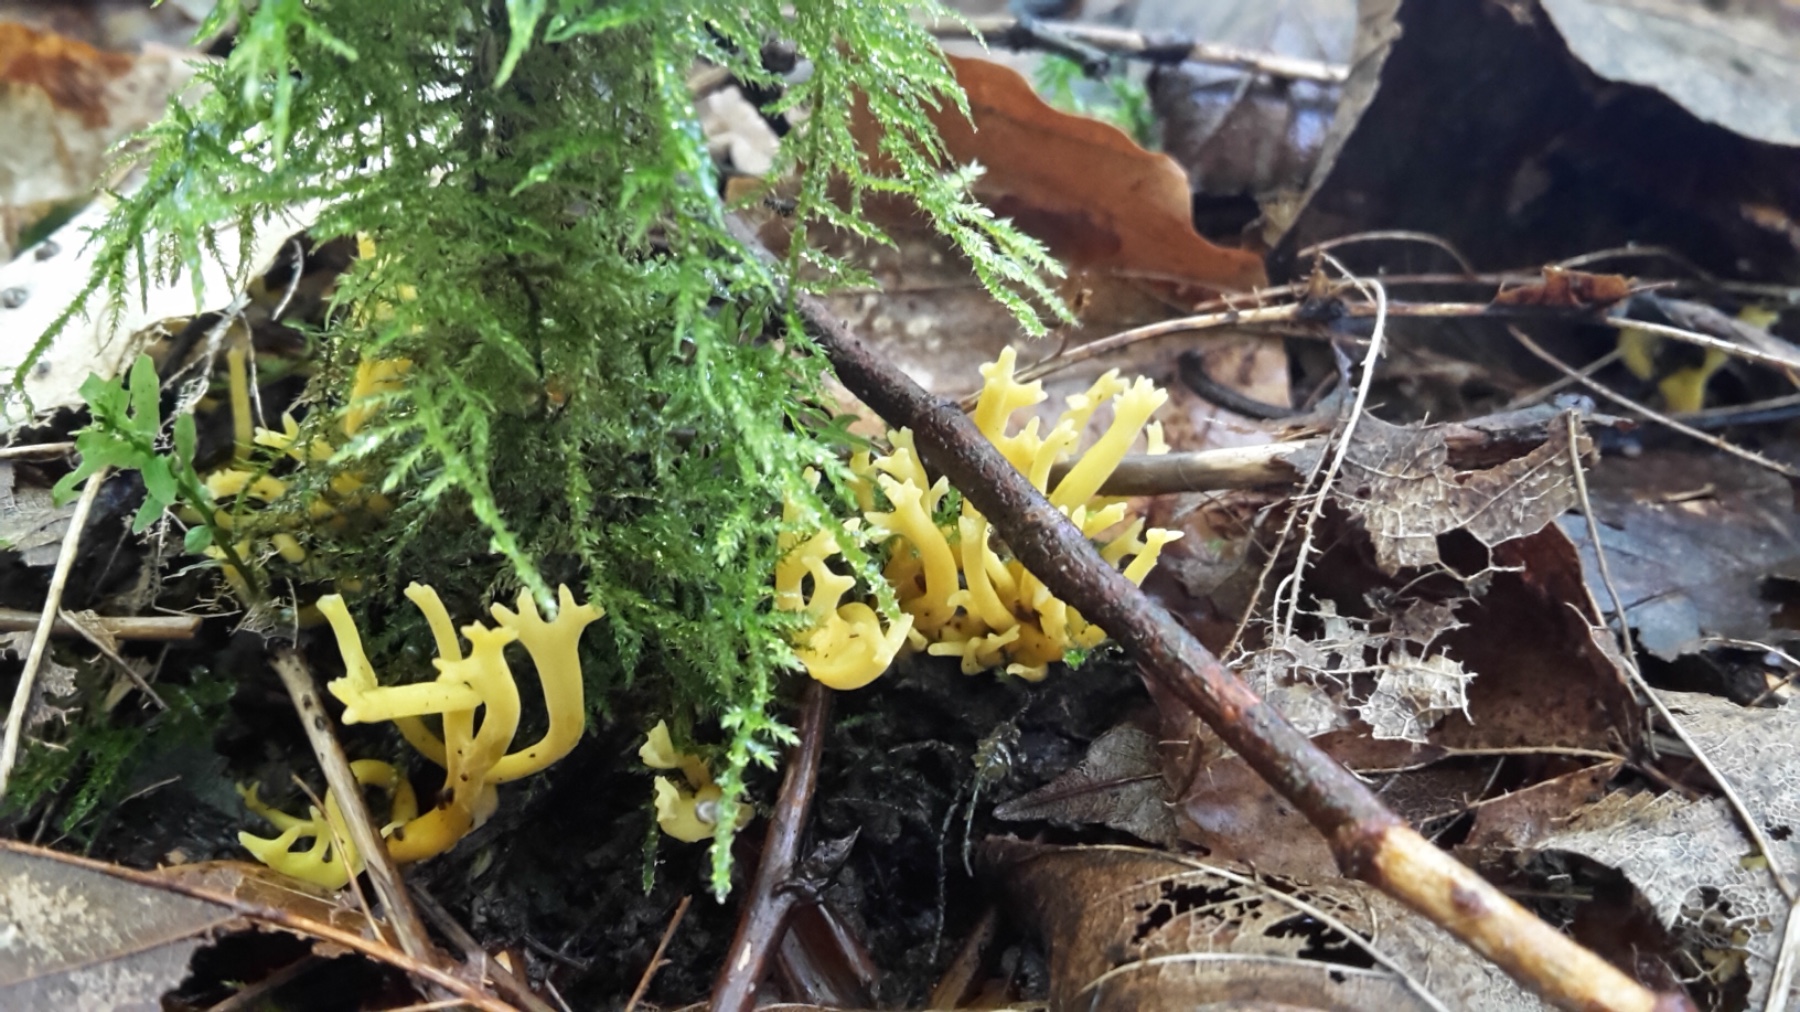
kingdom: Fungi
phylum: Basidiomycota
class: Agaricomycetes
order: Agaricales
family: Clavariaceae
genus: Clavulinopsis
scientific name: Clavulinopsis corniculata
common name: eng-køllesvamp
